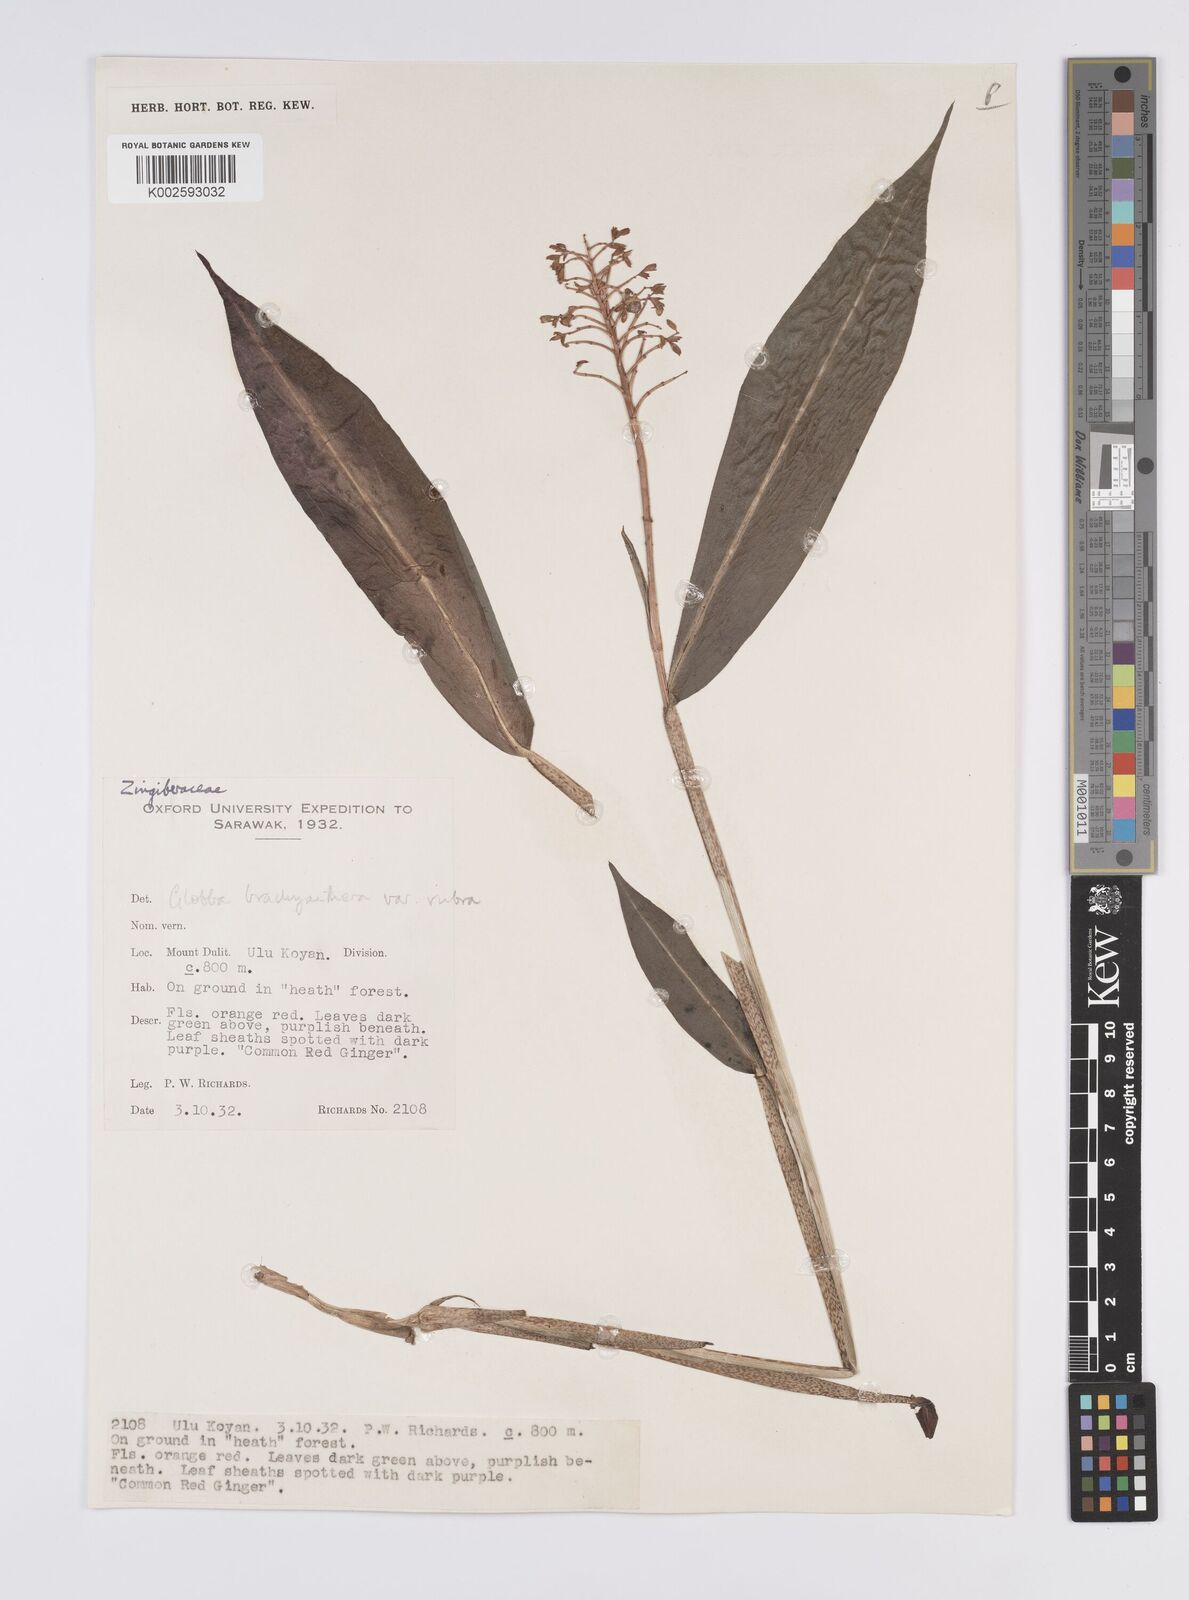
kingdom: Plantae
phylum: Tracheophyta
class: Liliopsida
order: Zingiberales
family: Zingiberaceae
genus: Globba
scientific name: Globba brachyanthera
